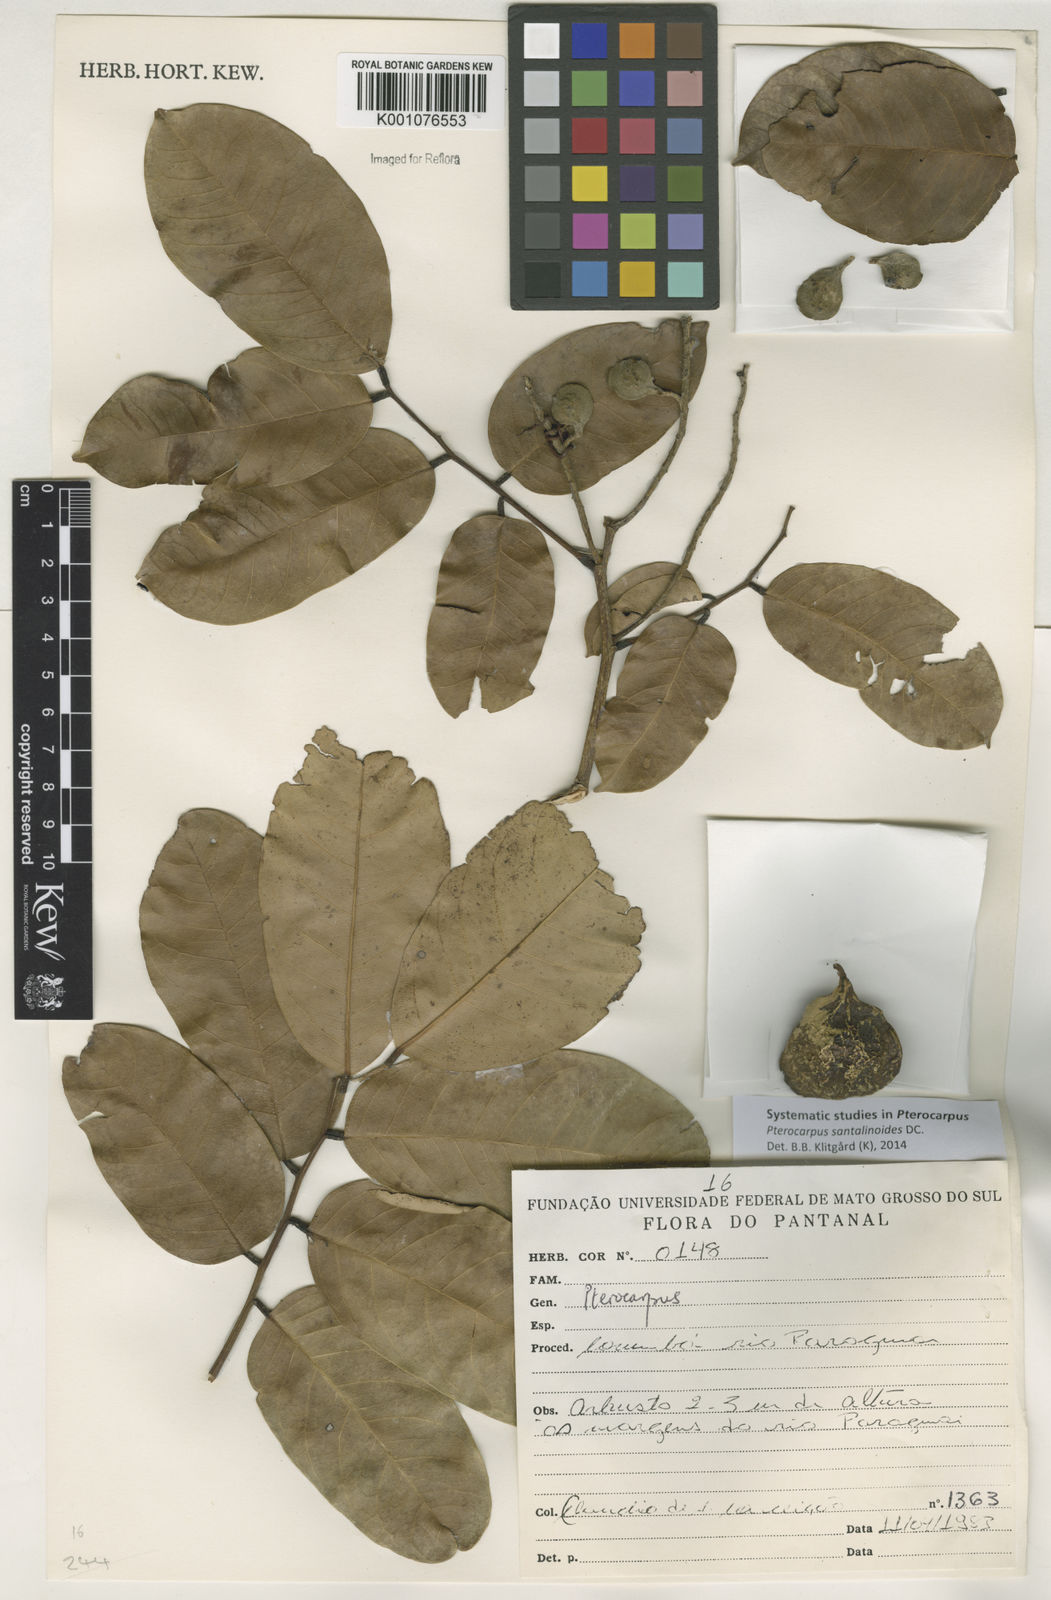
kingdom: Plantae
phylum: Tracheophyta
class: Magnoliopsida
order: Fabales
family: Fabaceae
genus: Pterocarpus
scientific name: Pterocarpus santalinoides
